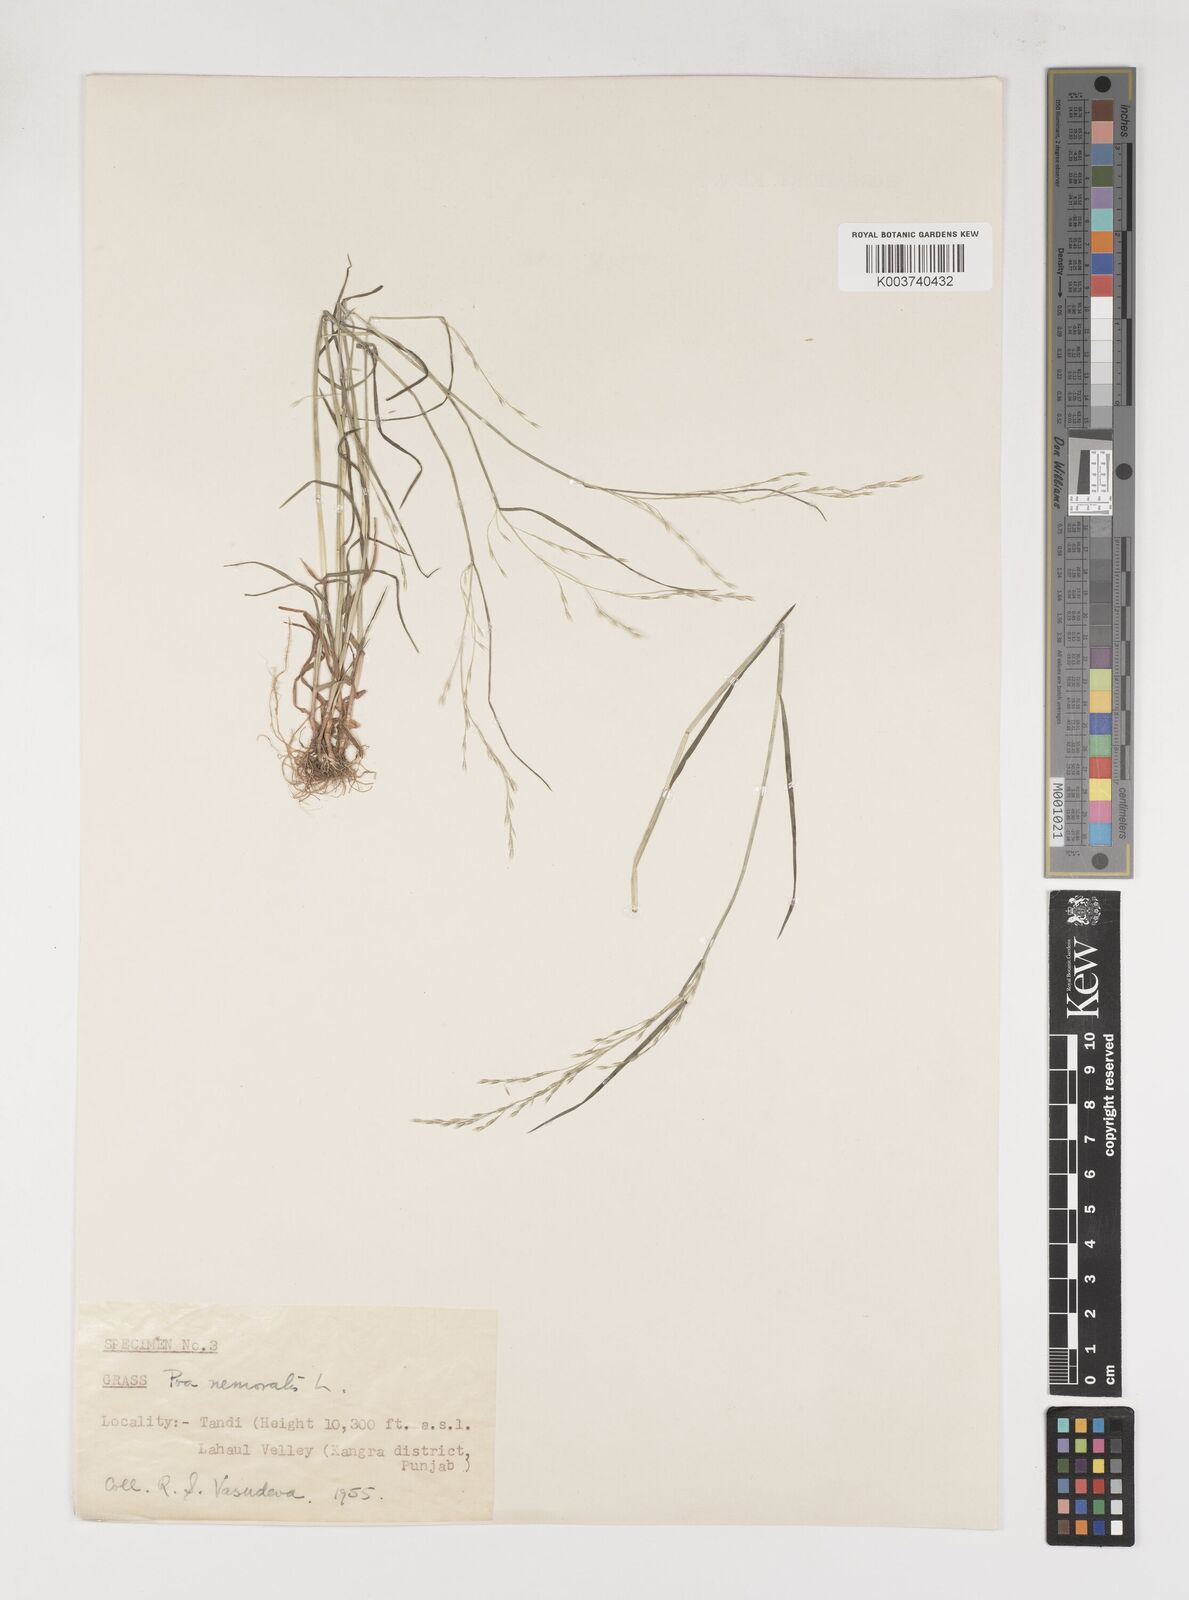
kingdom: Plantae
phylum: Tracheophyta
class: Liliopsida
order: Poales
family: Poaceae
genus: Poa
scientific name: Poa nemoralis
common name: Wood bluegrass
